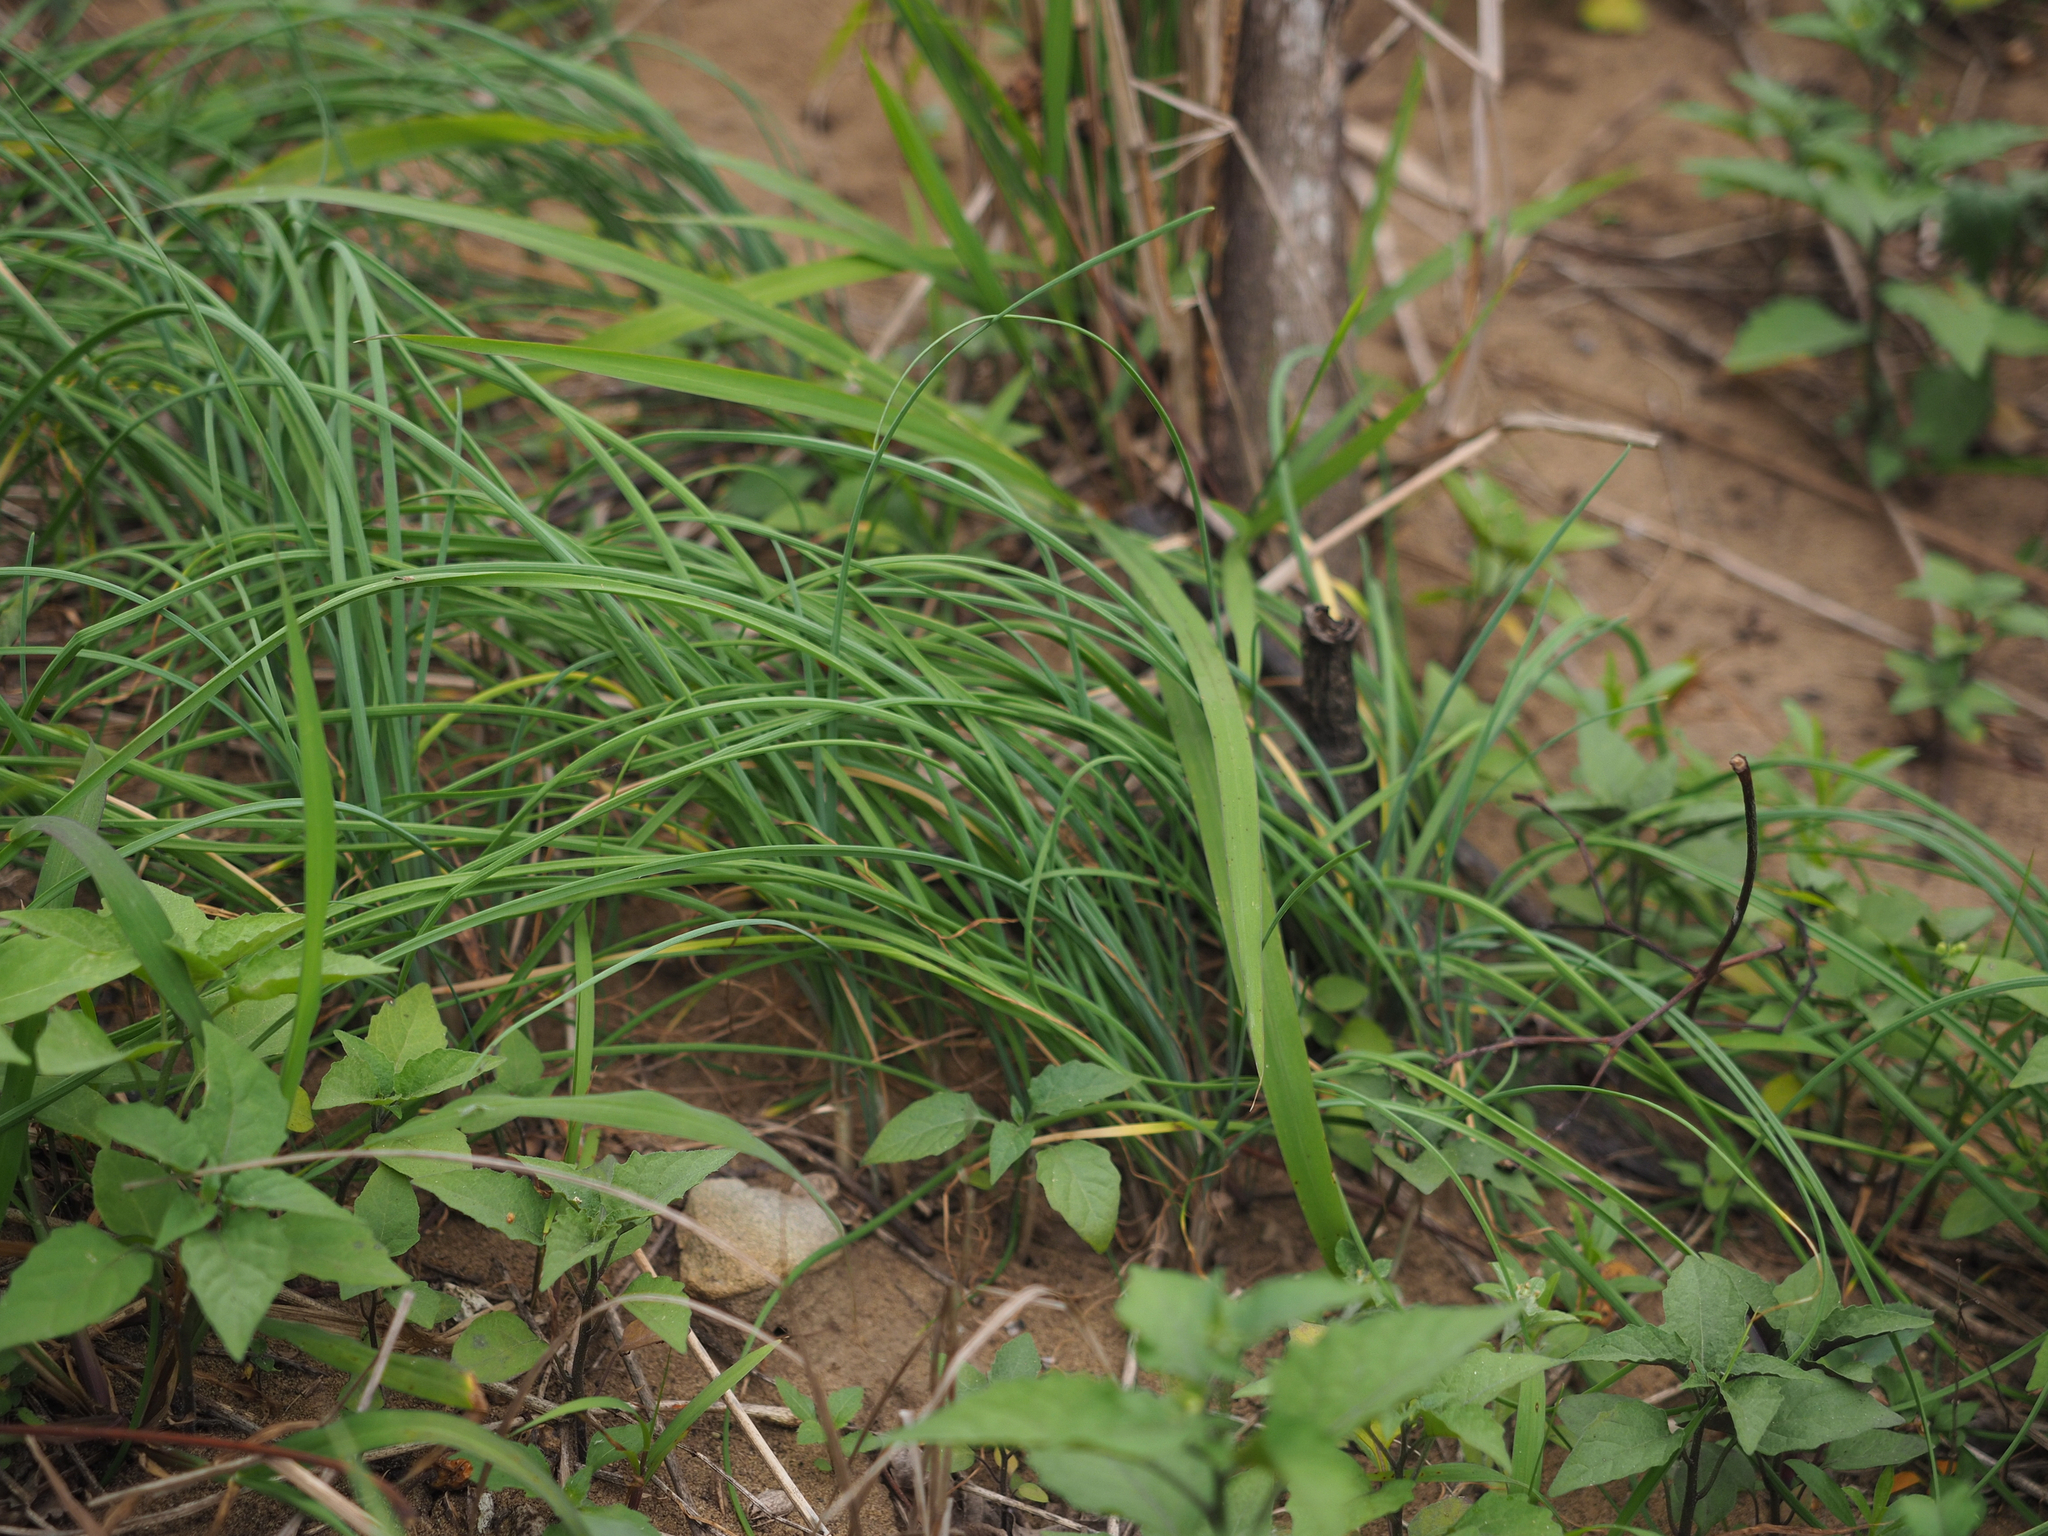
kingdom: Plantae
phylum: Tracheophyta
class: Liliopsida
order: Asparagales
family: Amaryllidaceae
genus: Allium
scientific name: Allium macrostemon
